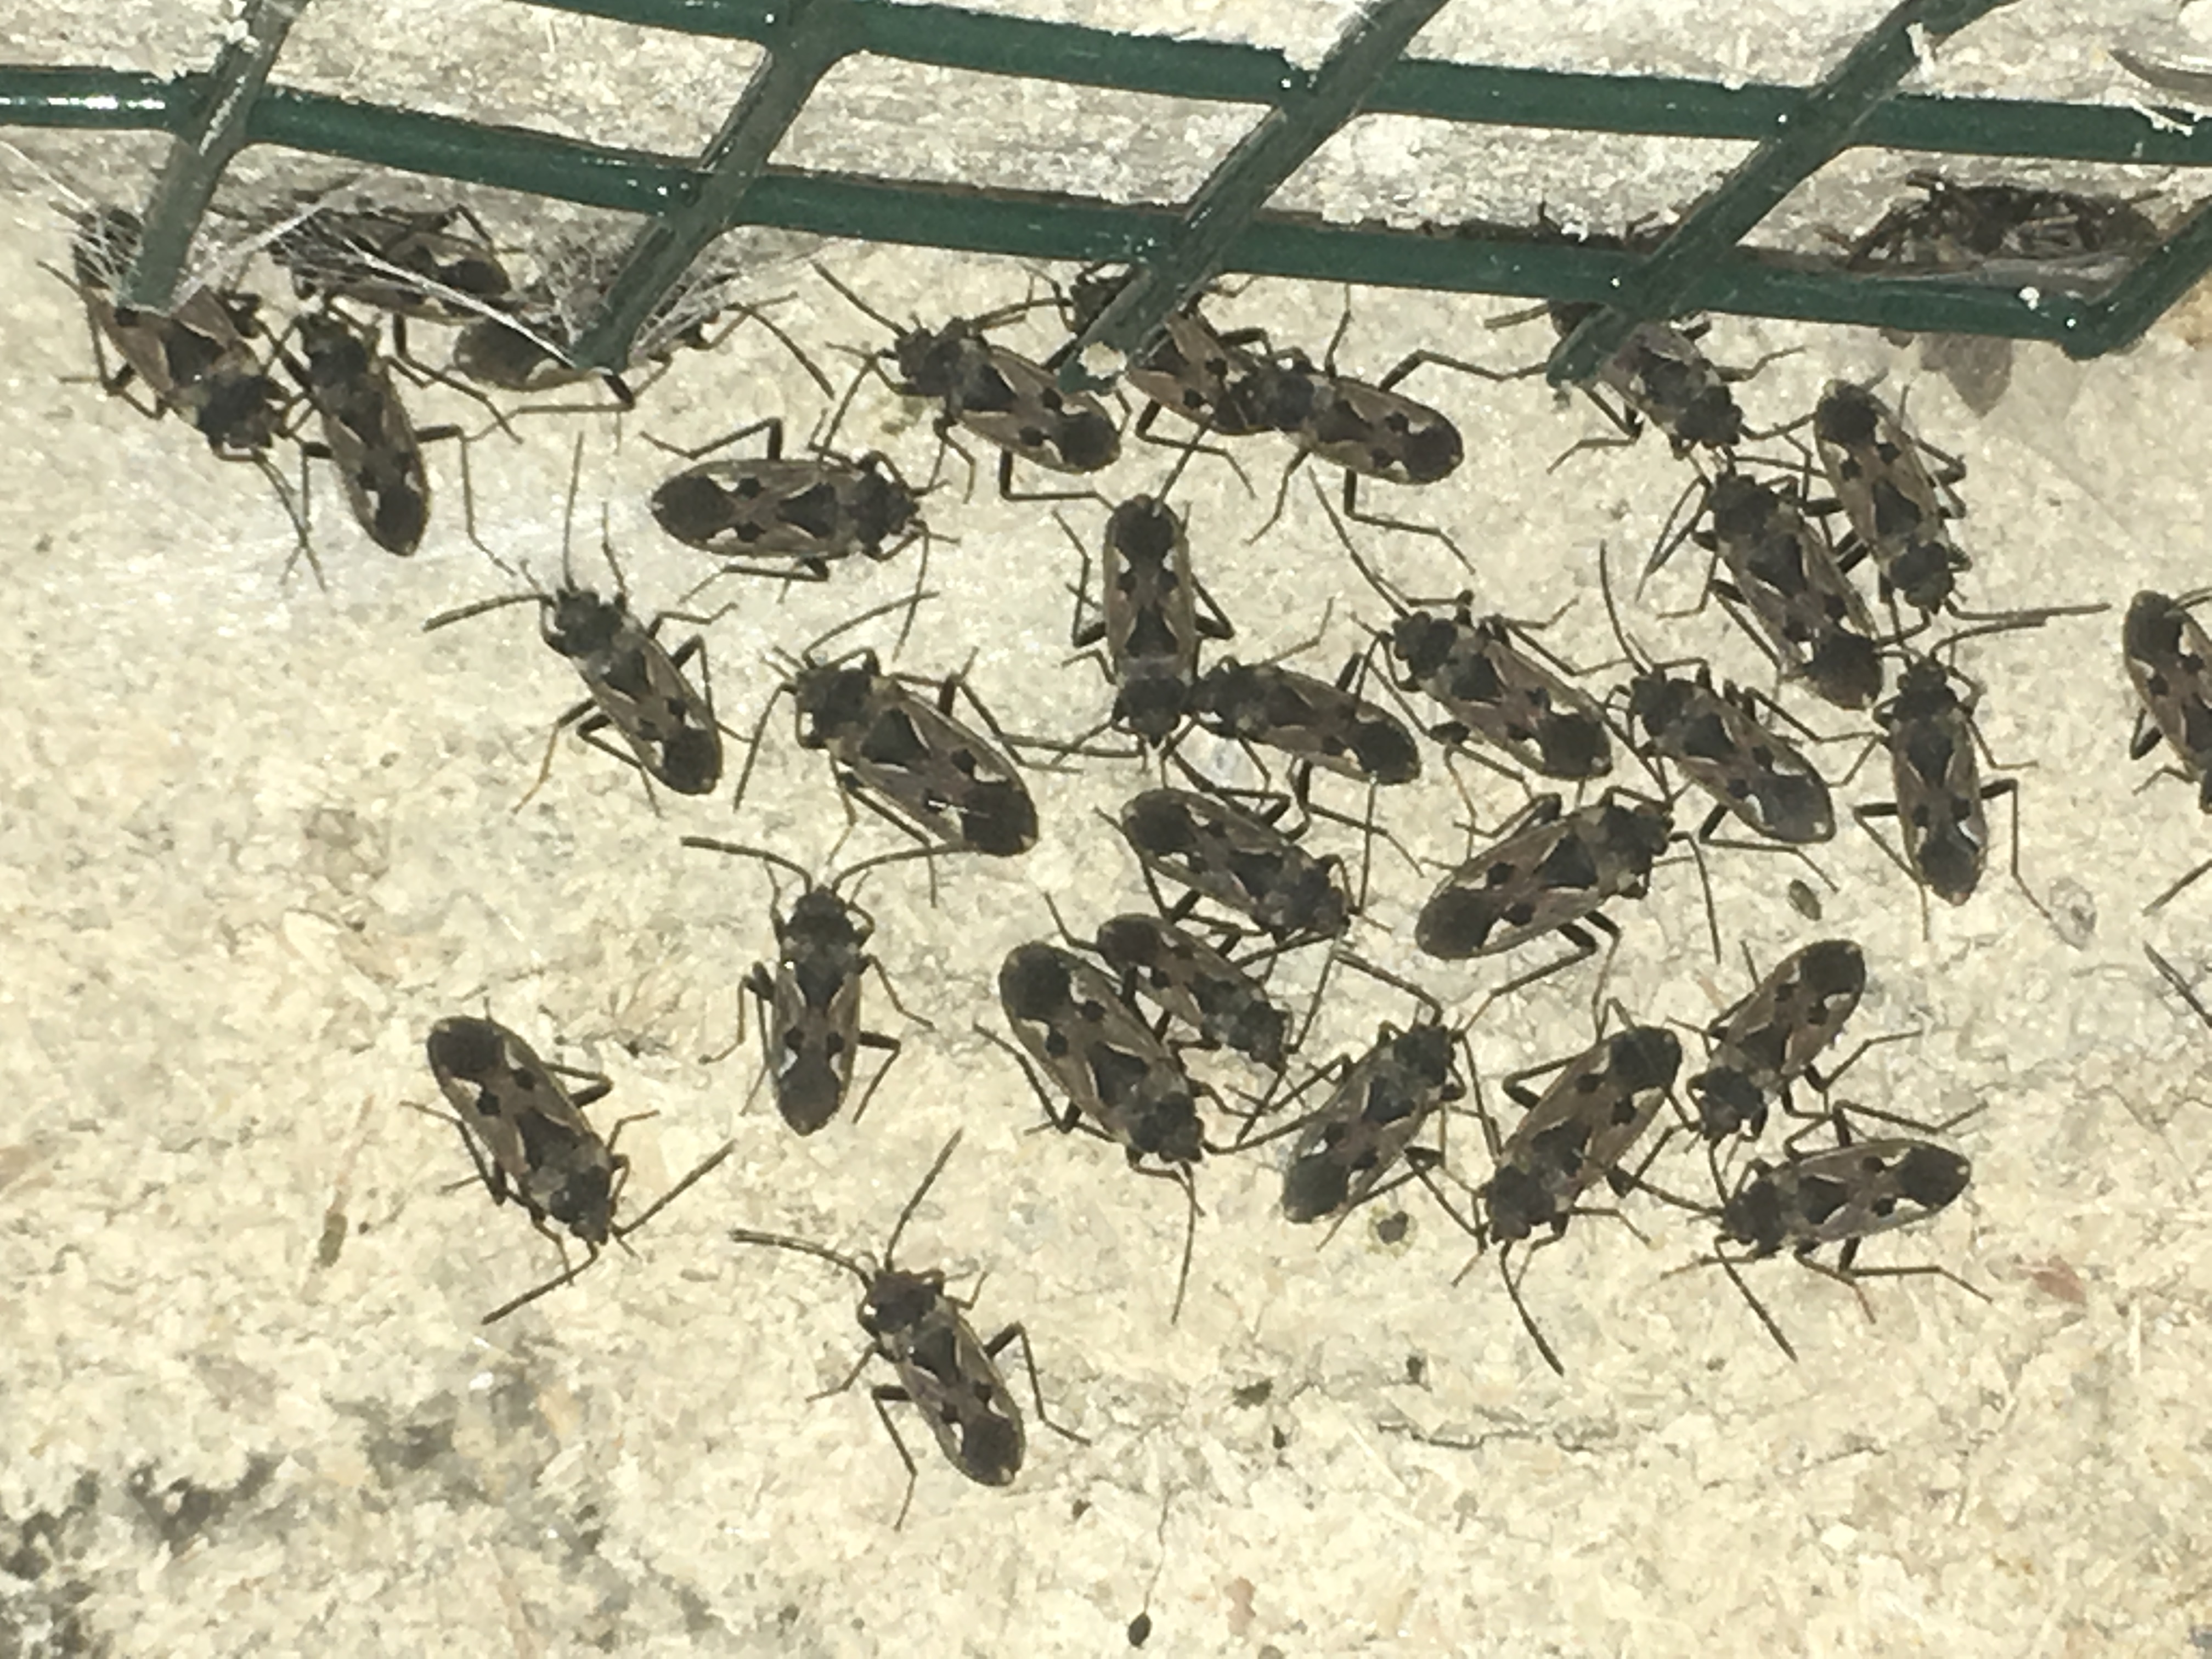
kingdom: Animalia
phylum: Arthropoda
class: Insecta
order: Dermaptera
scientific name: Dermaptera
